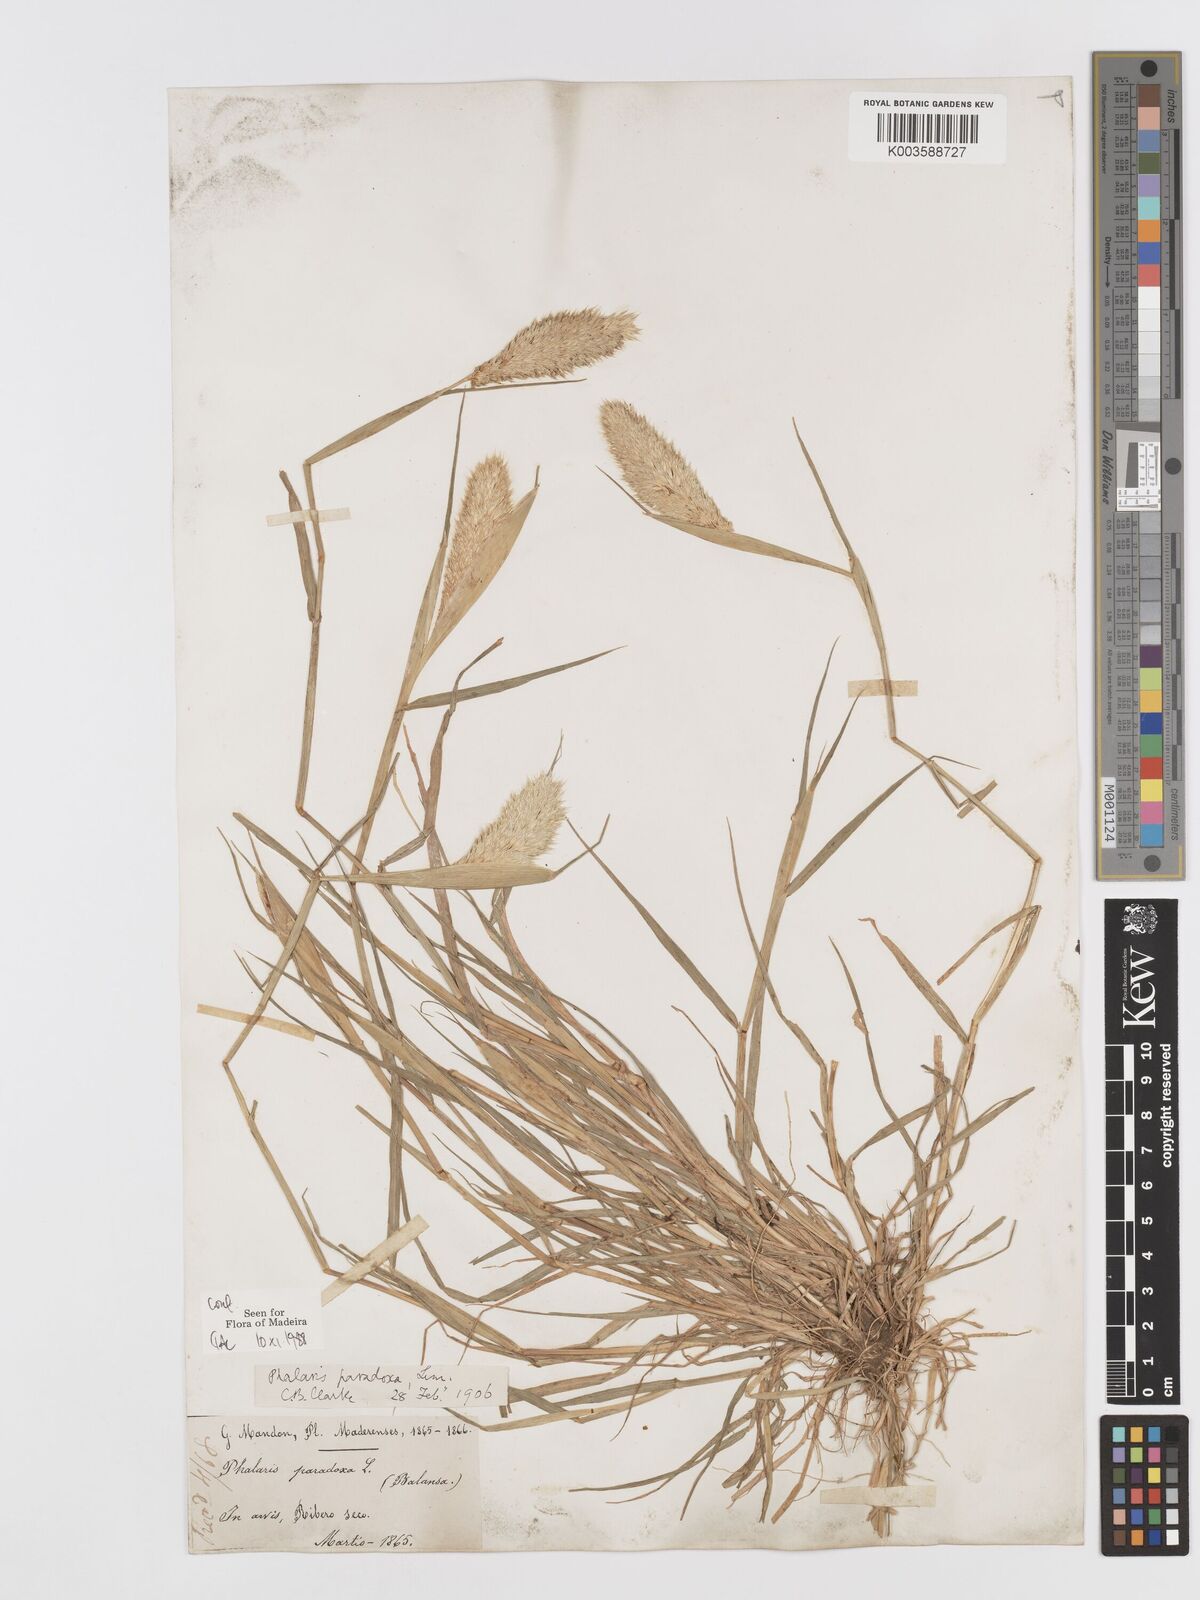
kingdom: Plantae
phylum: Tracheophyta
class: Liliopsida
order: Poales
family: Poaceae
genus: Phalaris
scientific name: Phalaris paradoxa
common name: Awned canary-grass
